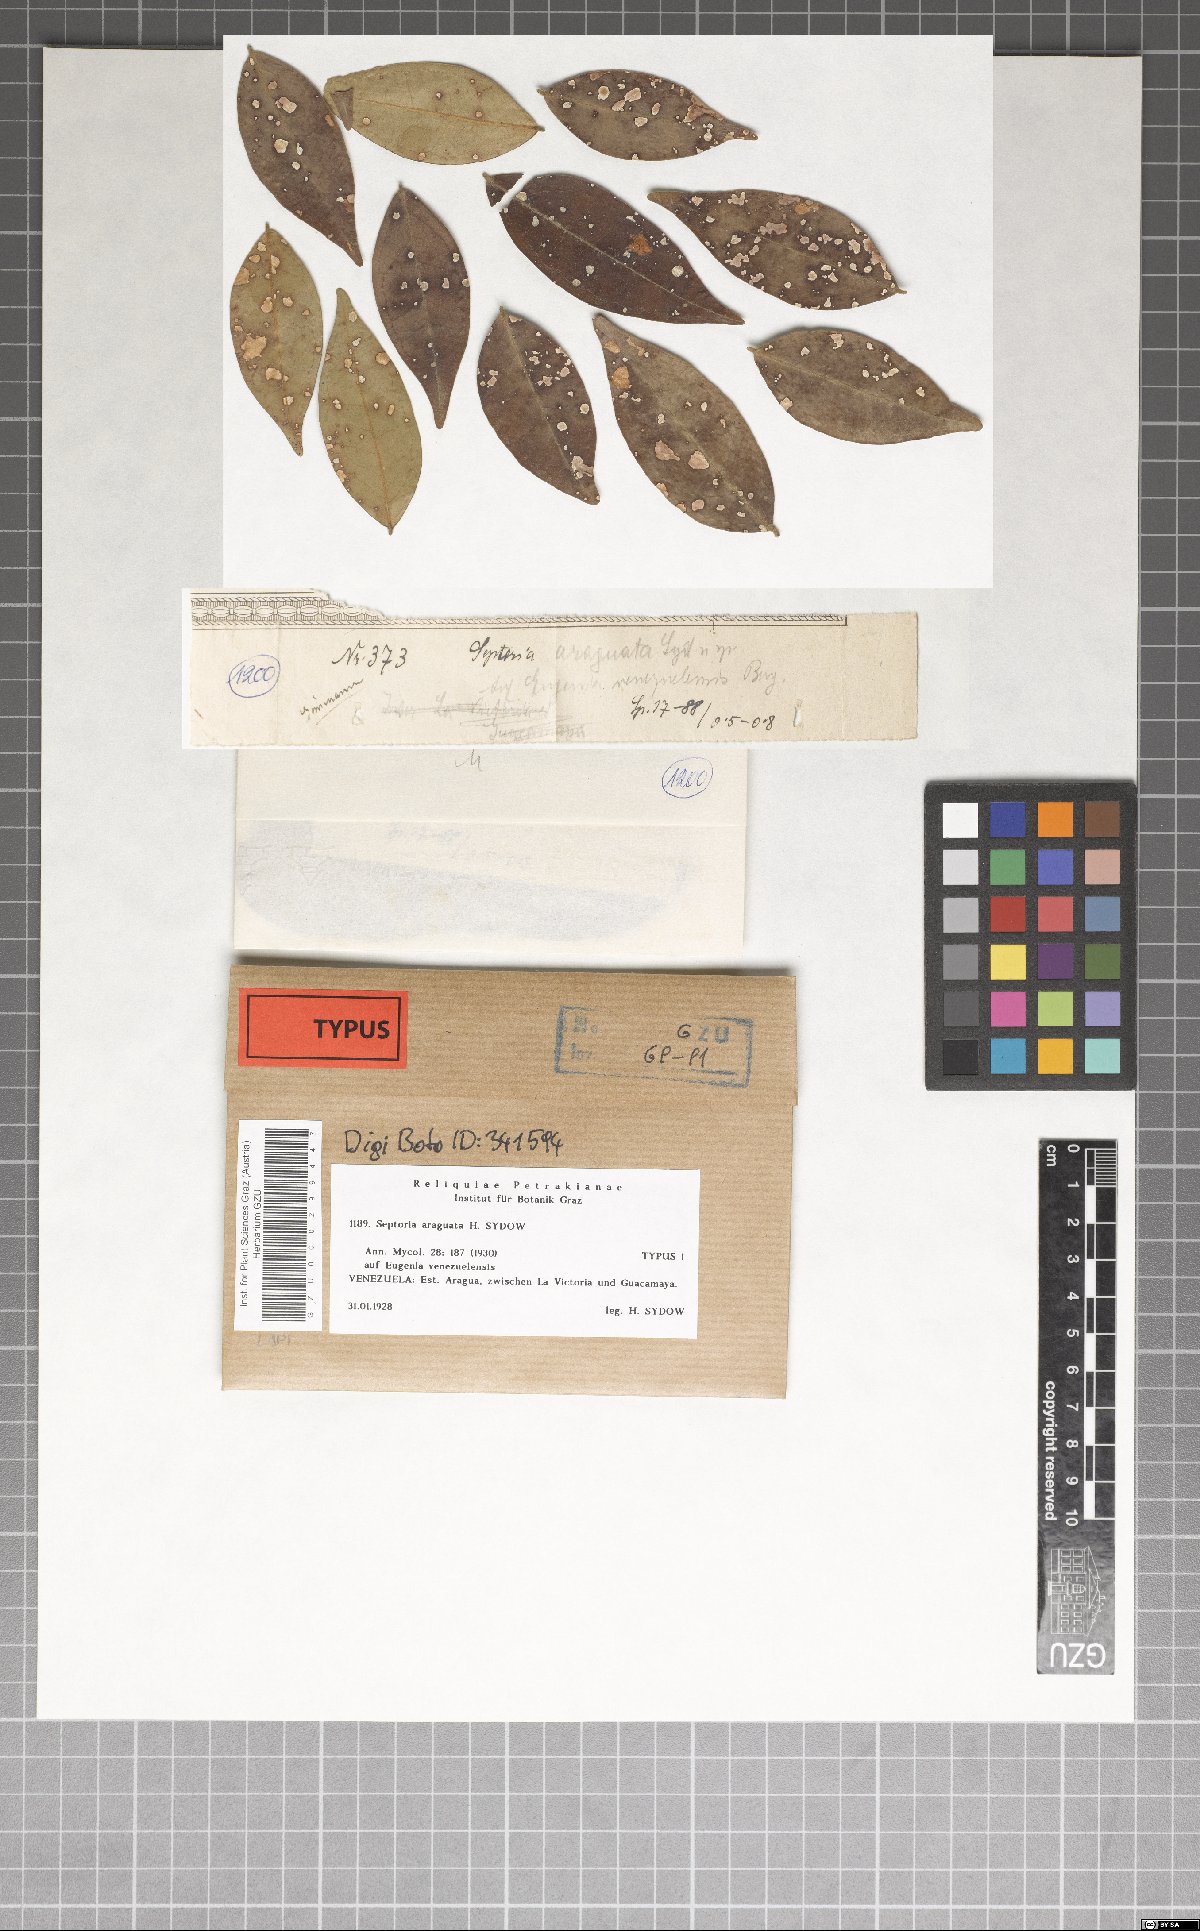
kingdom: Fungi
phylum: Ascomycota
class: Dothideomycetes
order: Mycosphaerellales
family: Mycosphaerellaceae
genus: Septoria
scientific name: Septoria araguata
